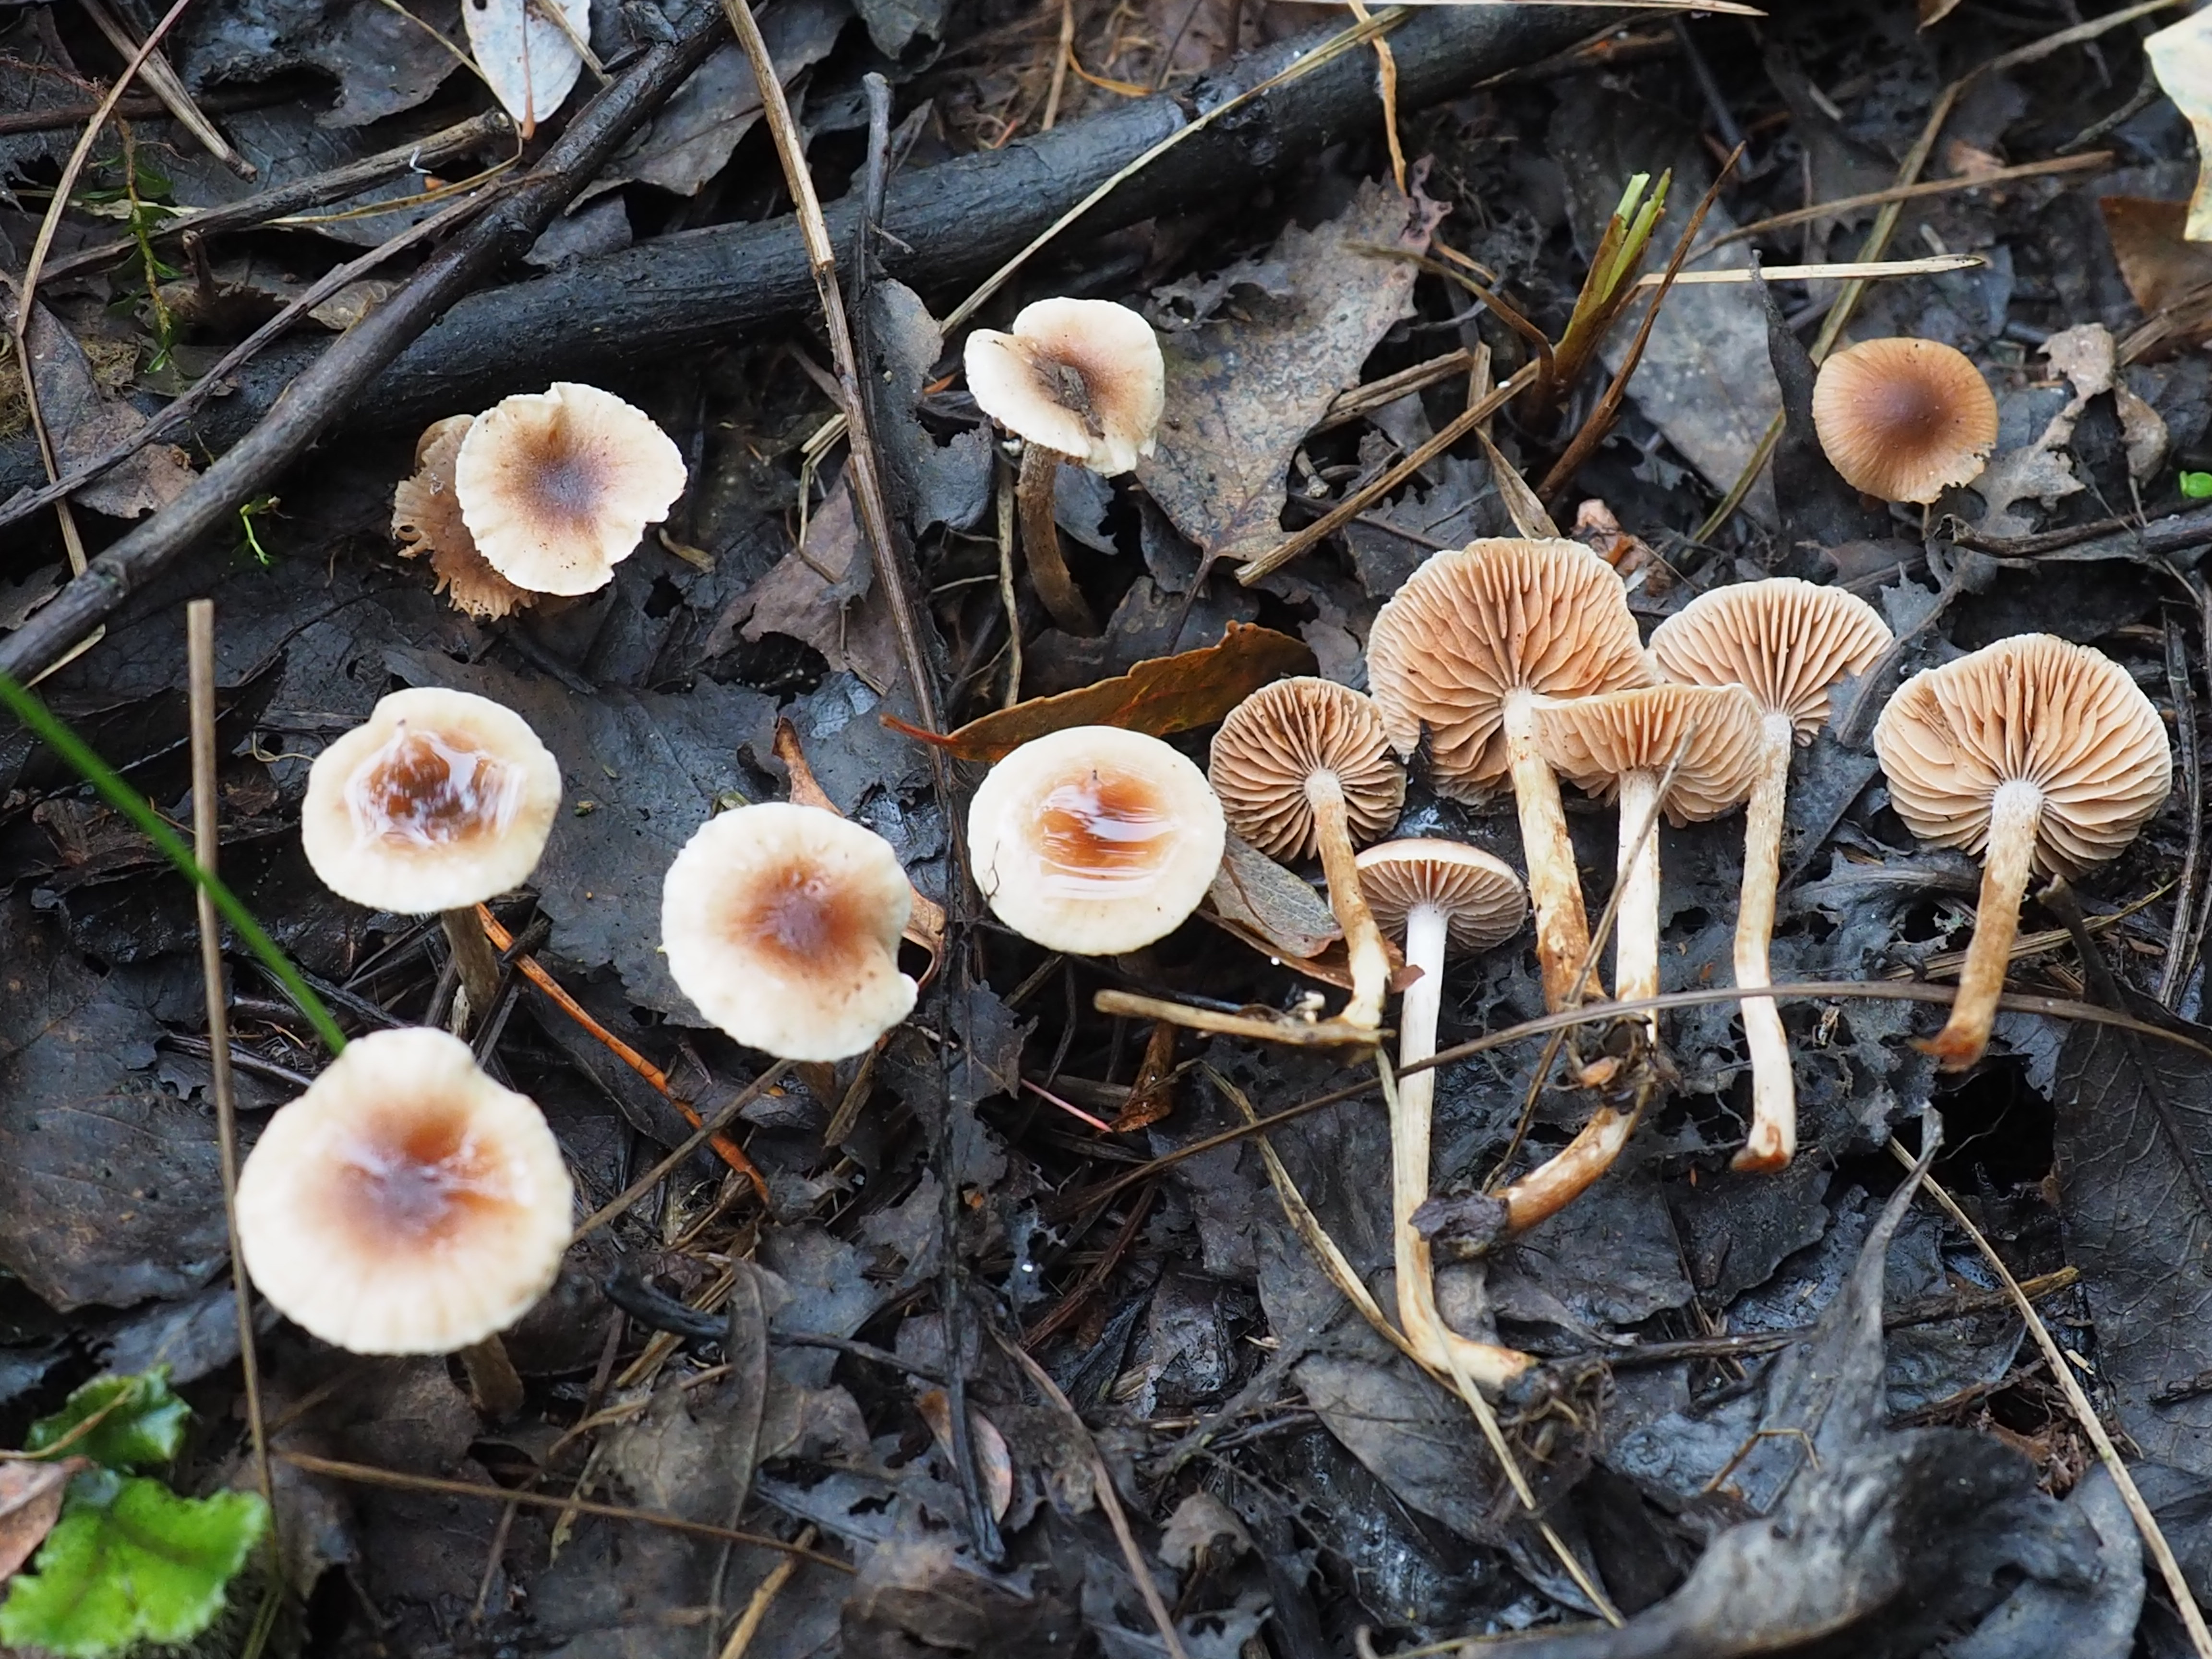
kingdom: Fungi
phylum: Basidiomycota
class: Agaricomycetes
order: Agaricales
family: Hymenogastraceae
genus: Hebeloma
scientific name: Hebeloma hygrophilum
